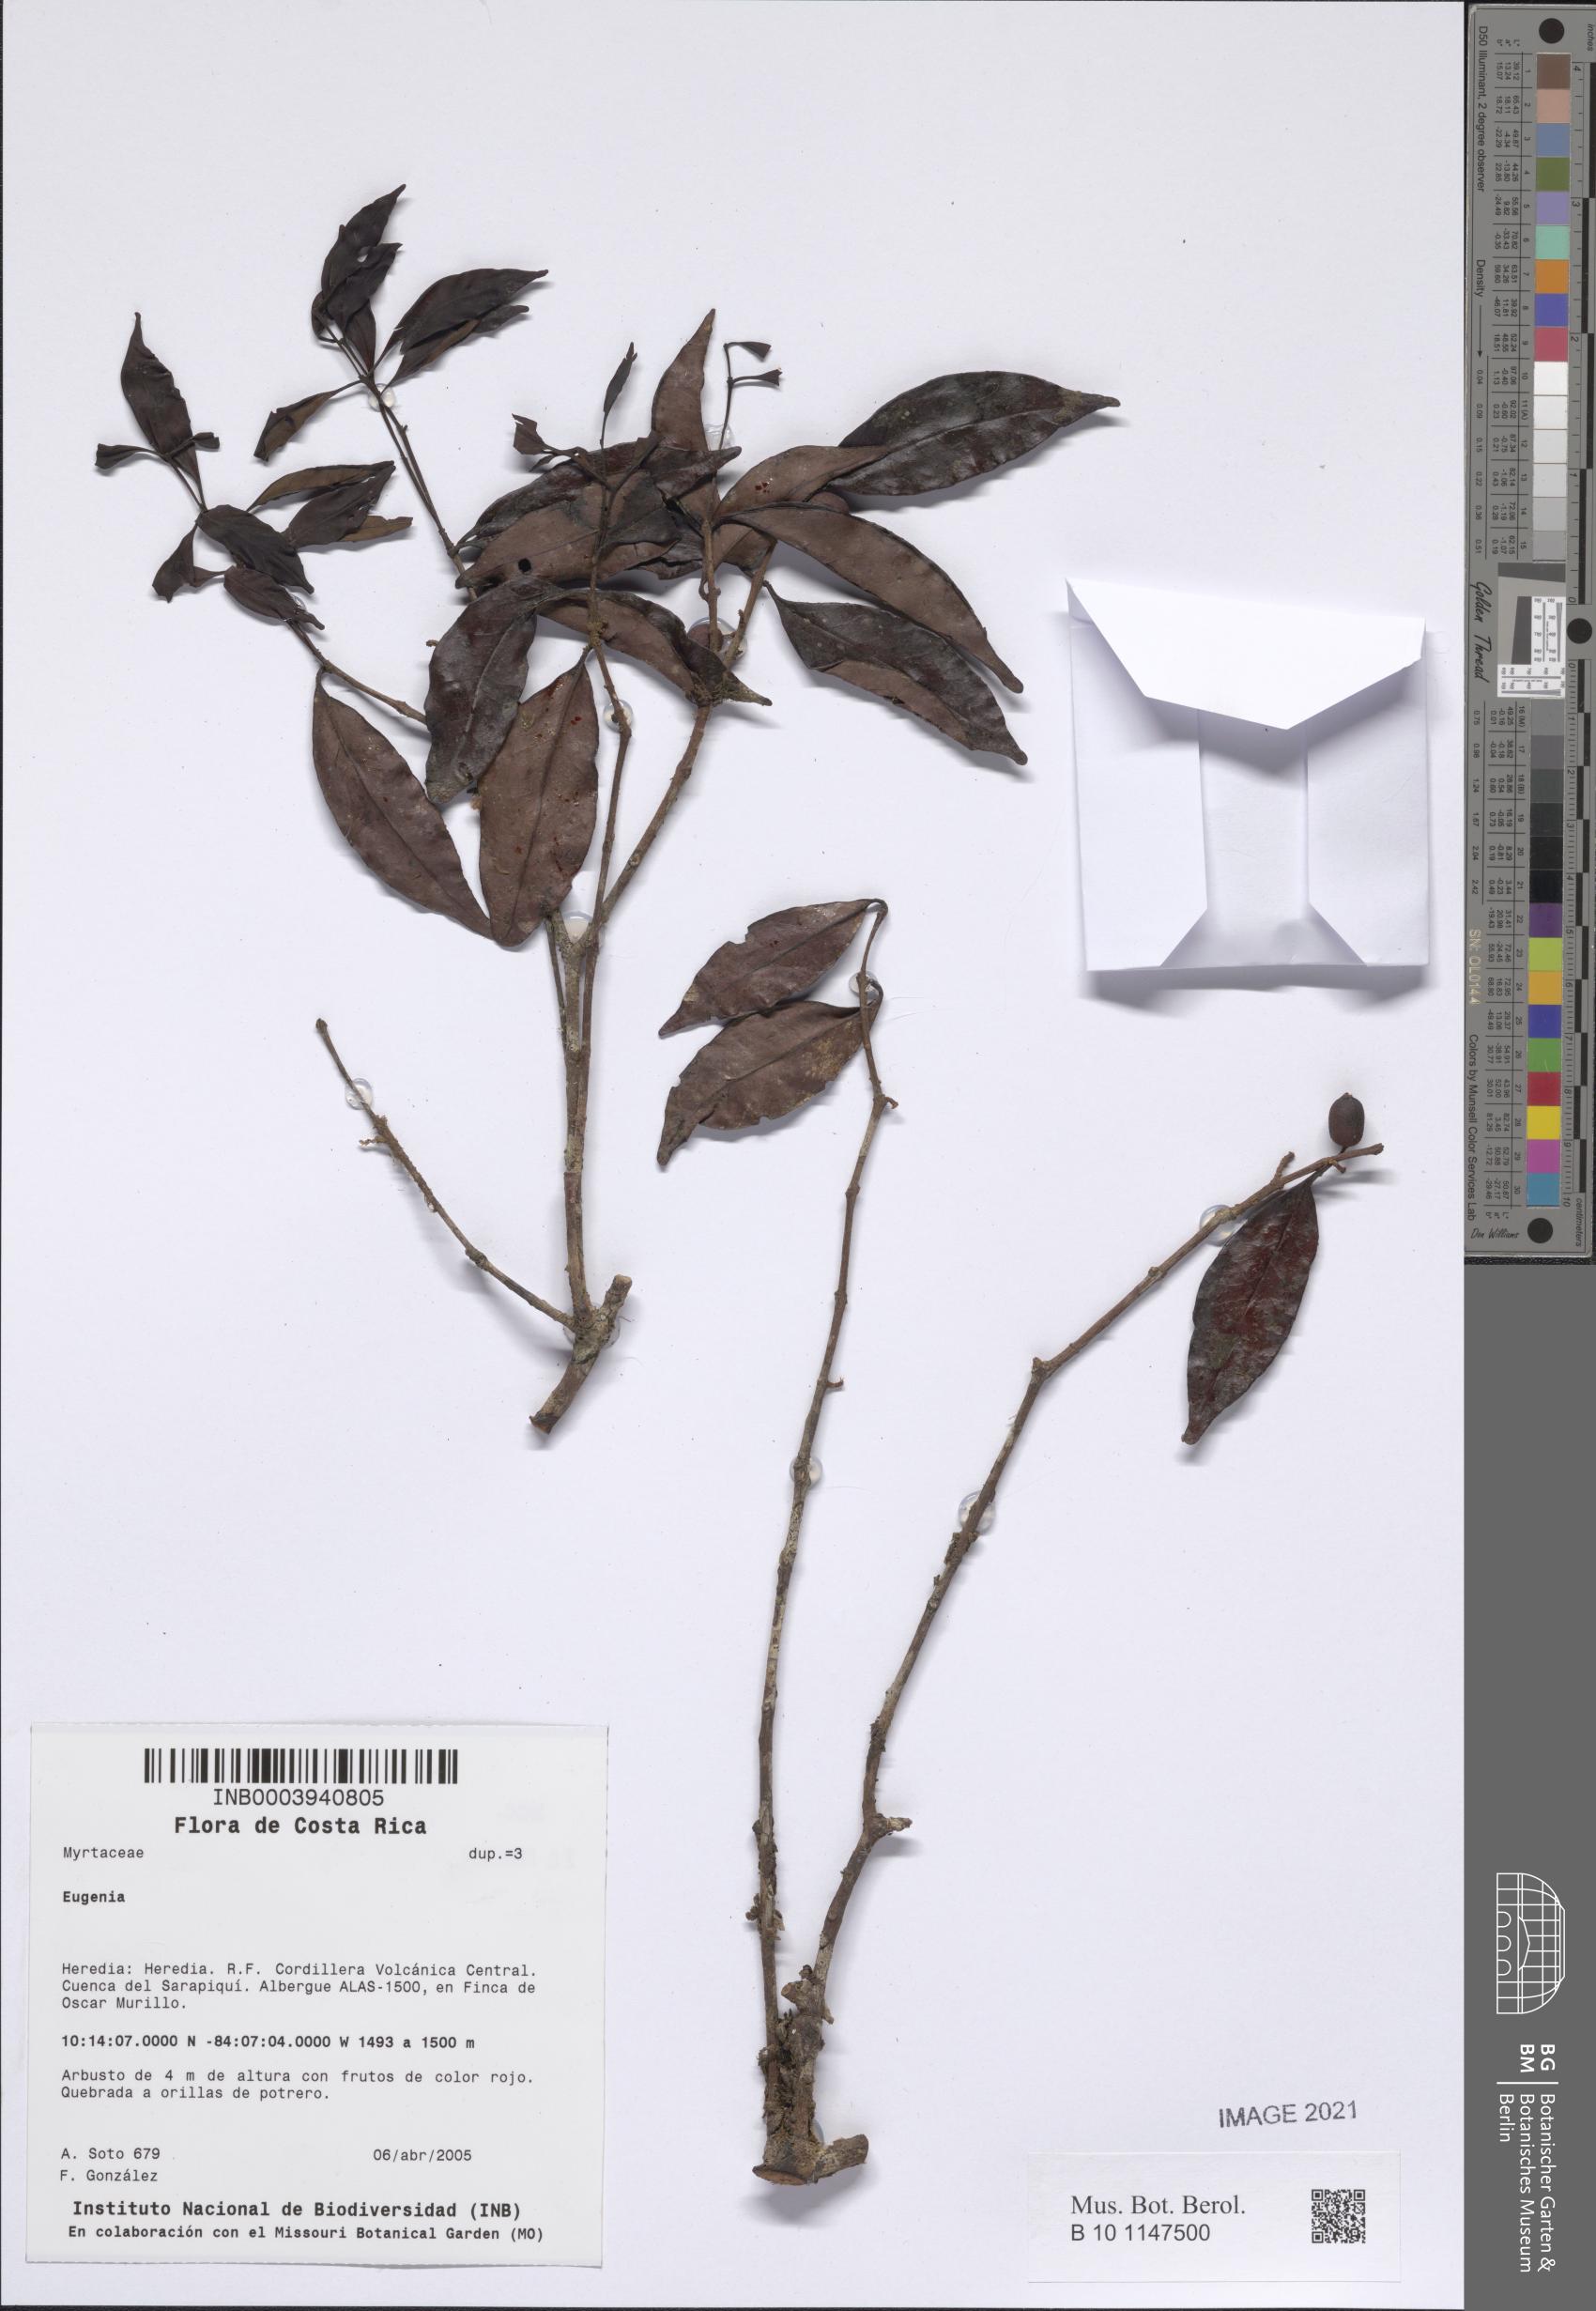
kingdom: Plantae
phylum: Tracheophyta
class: Magnoliopsida
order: Myrtales
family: Myrtaceae
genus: Eugenia
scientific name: Eugenia
